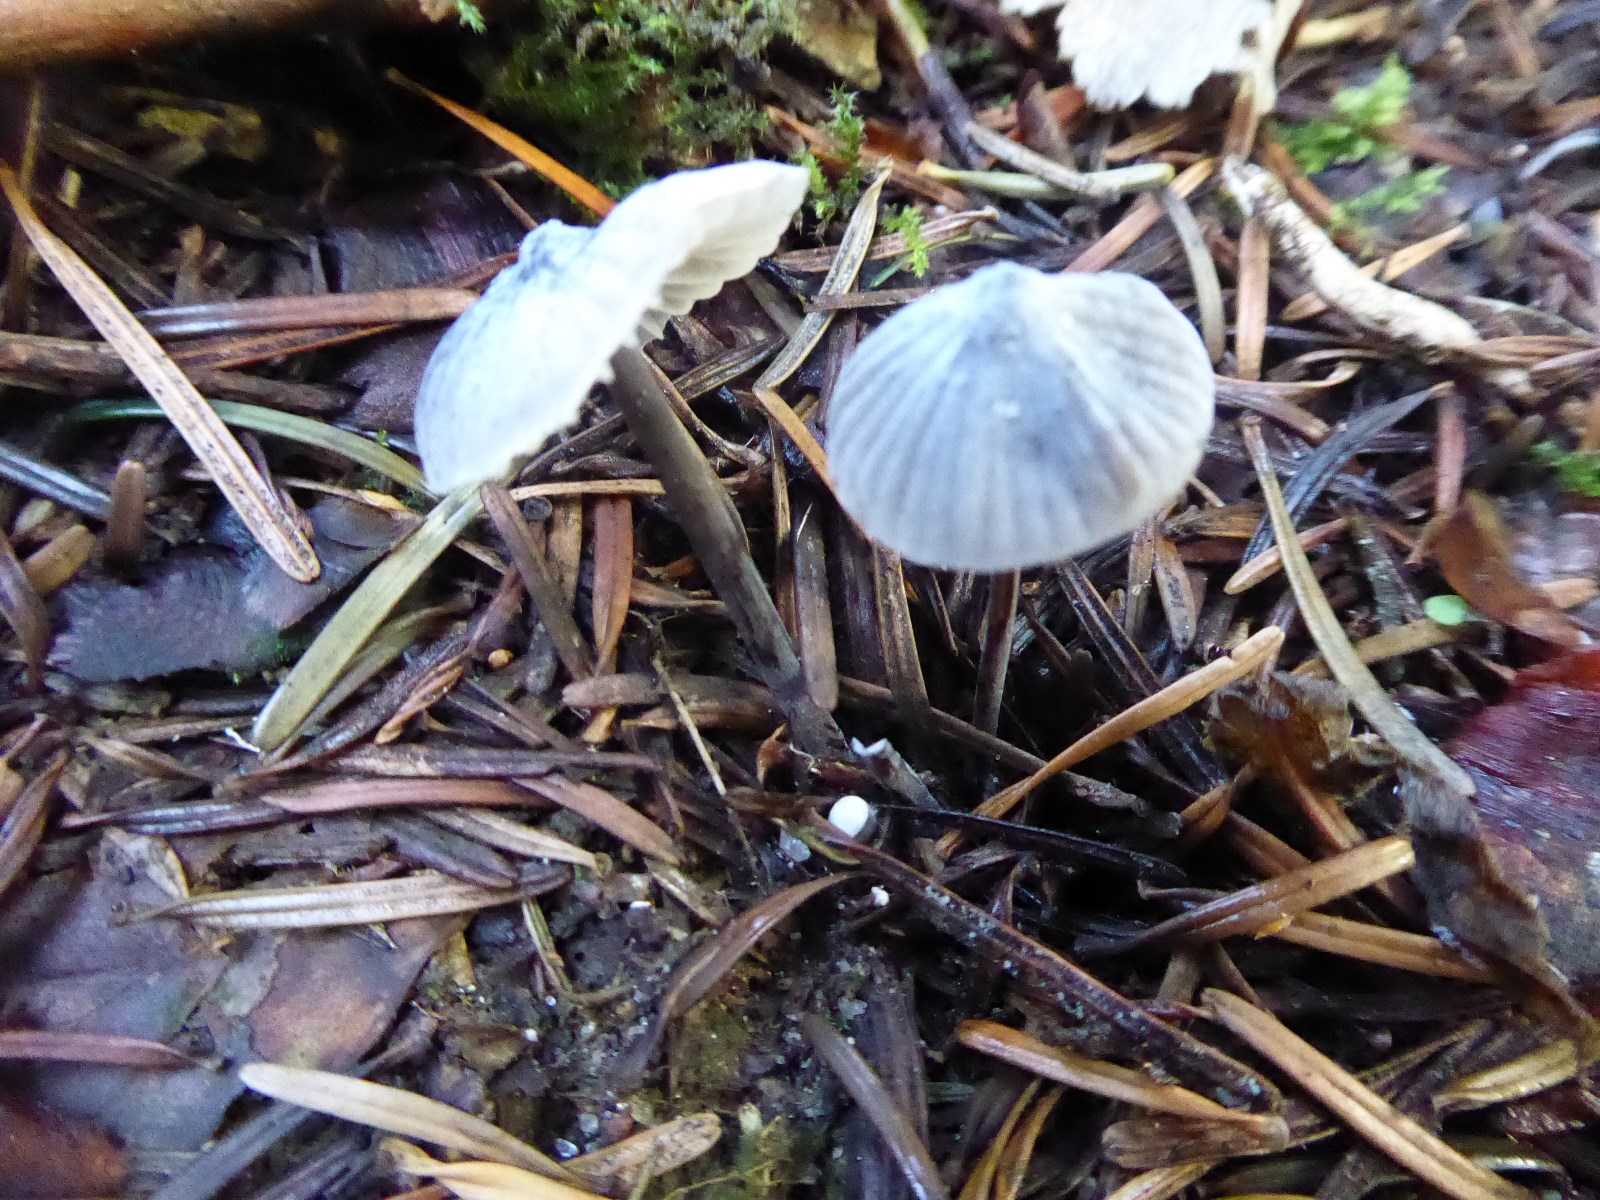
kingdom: Fungi
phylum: Basidiomycota
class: Agaricomycetes
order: Agaricales
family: Mycenaceae
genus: Mycena
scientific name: Mycena galopus
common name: hvidmælket huesvamp
